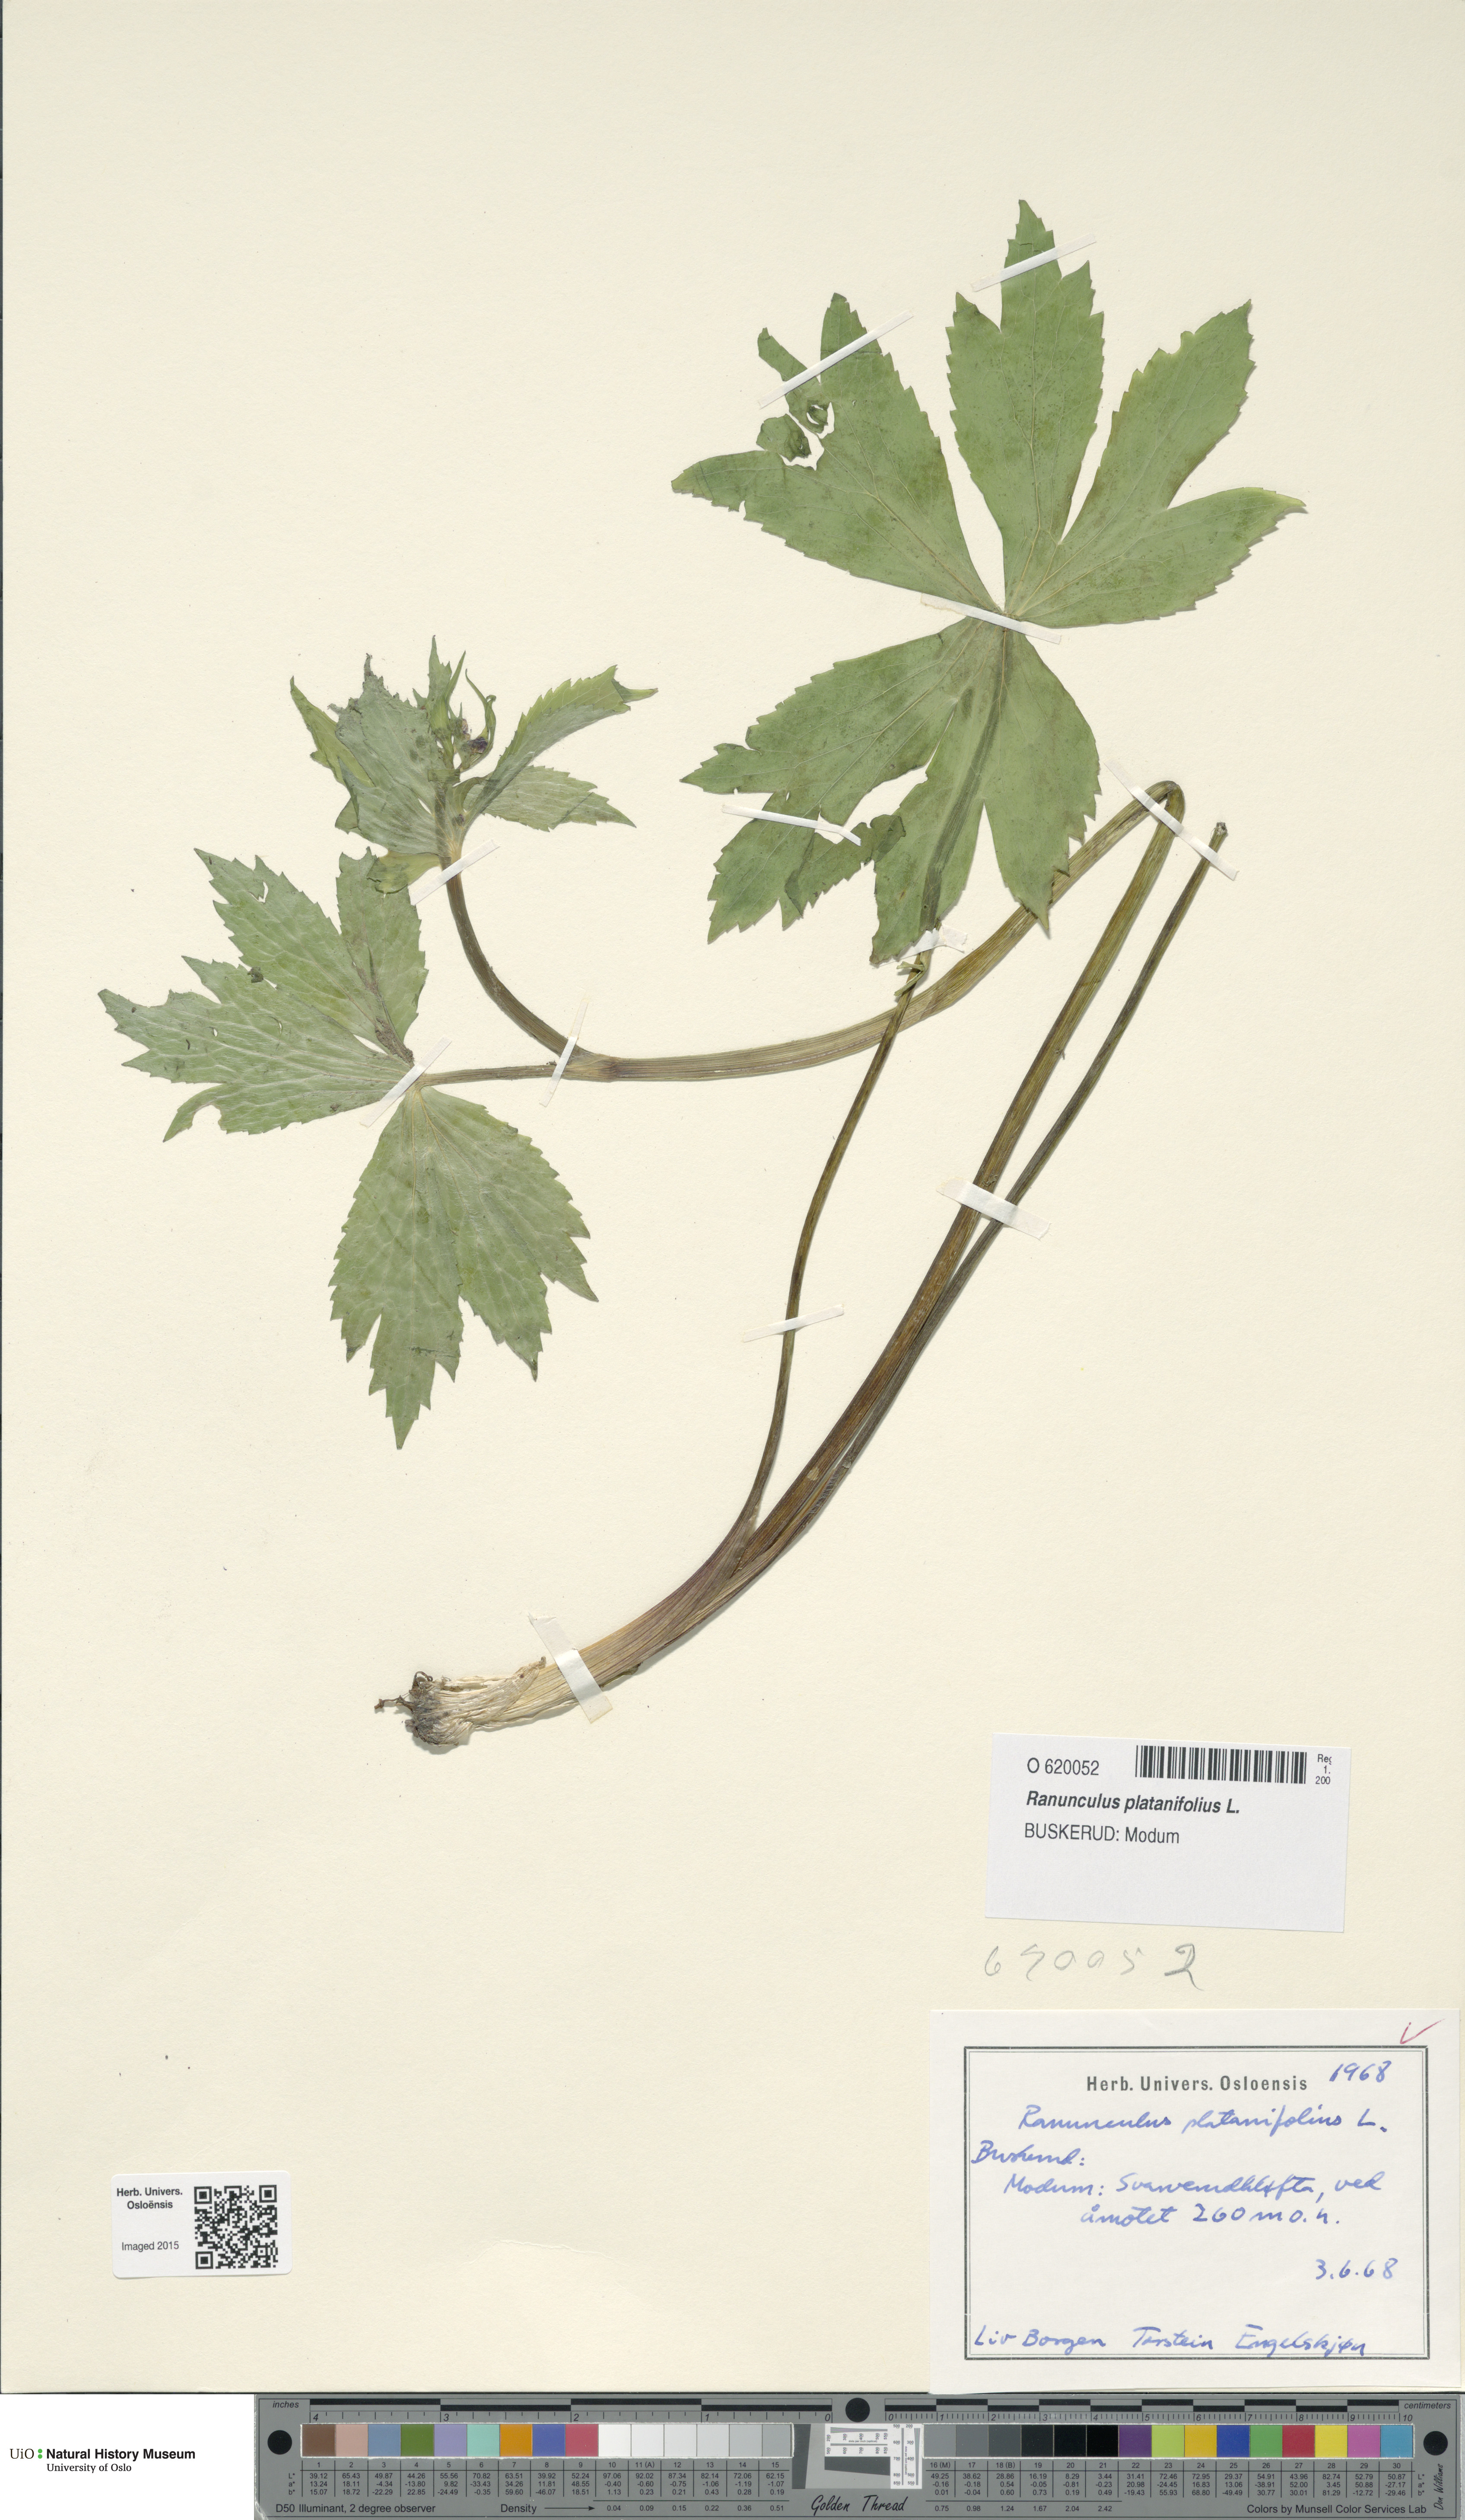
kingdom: Plantae
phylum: Tracheophyta
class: Magnoliopsida
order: Ranunculales
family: Ranunculaceae
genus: Ranunculus
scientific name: Ranunculus platanifolius
